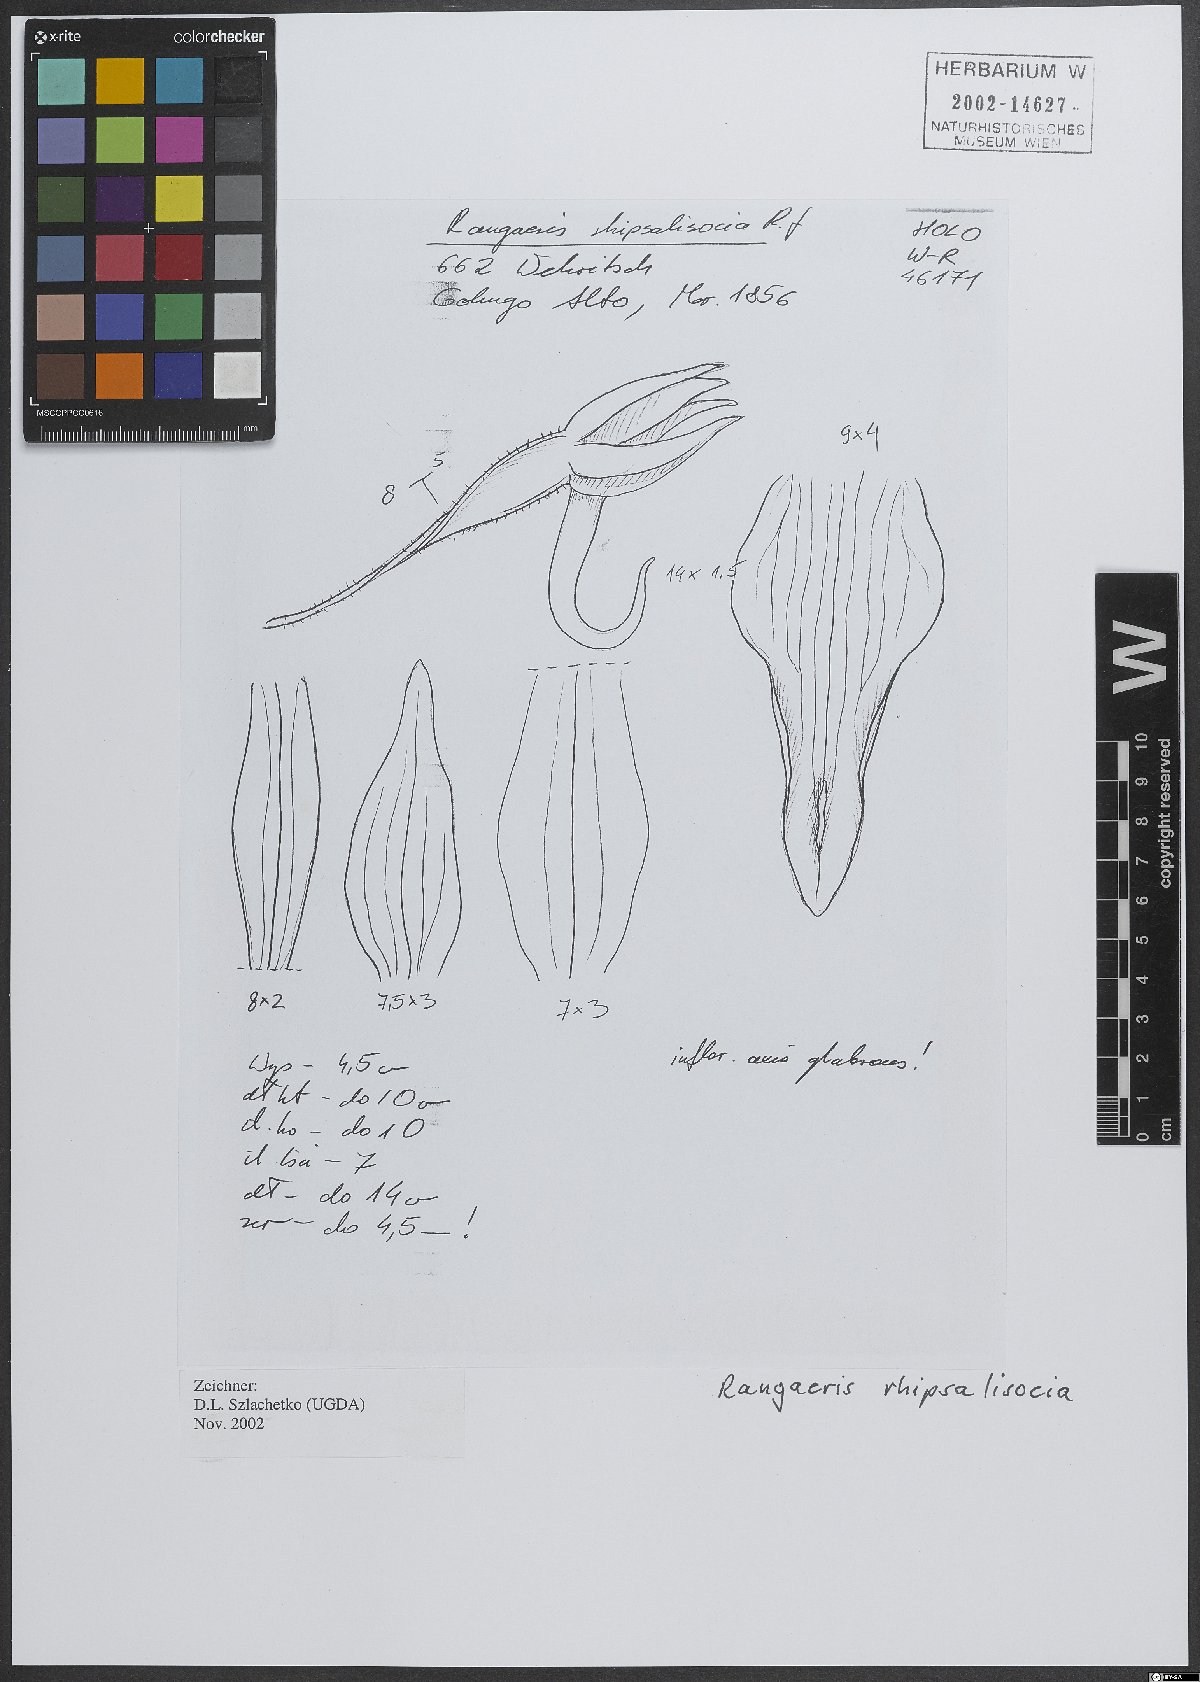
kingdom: Plantae
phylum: Tracheophyta
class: Liliopsida
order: Asparagales
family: Orchidaceae
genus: Rangaeris
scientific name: Rangaeris
